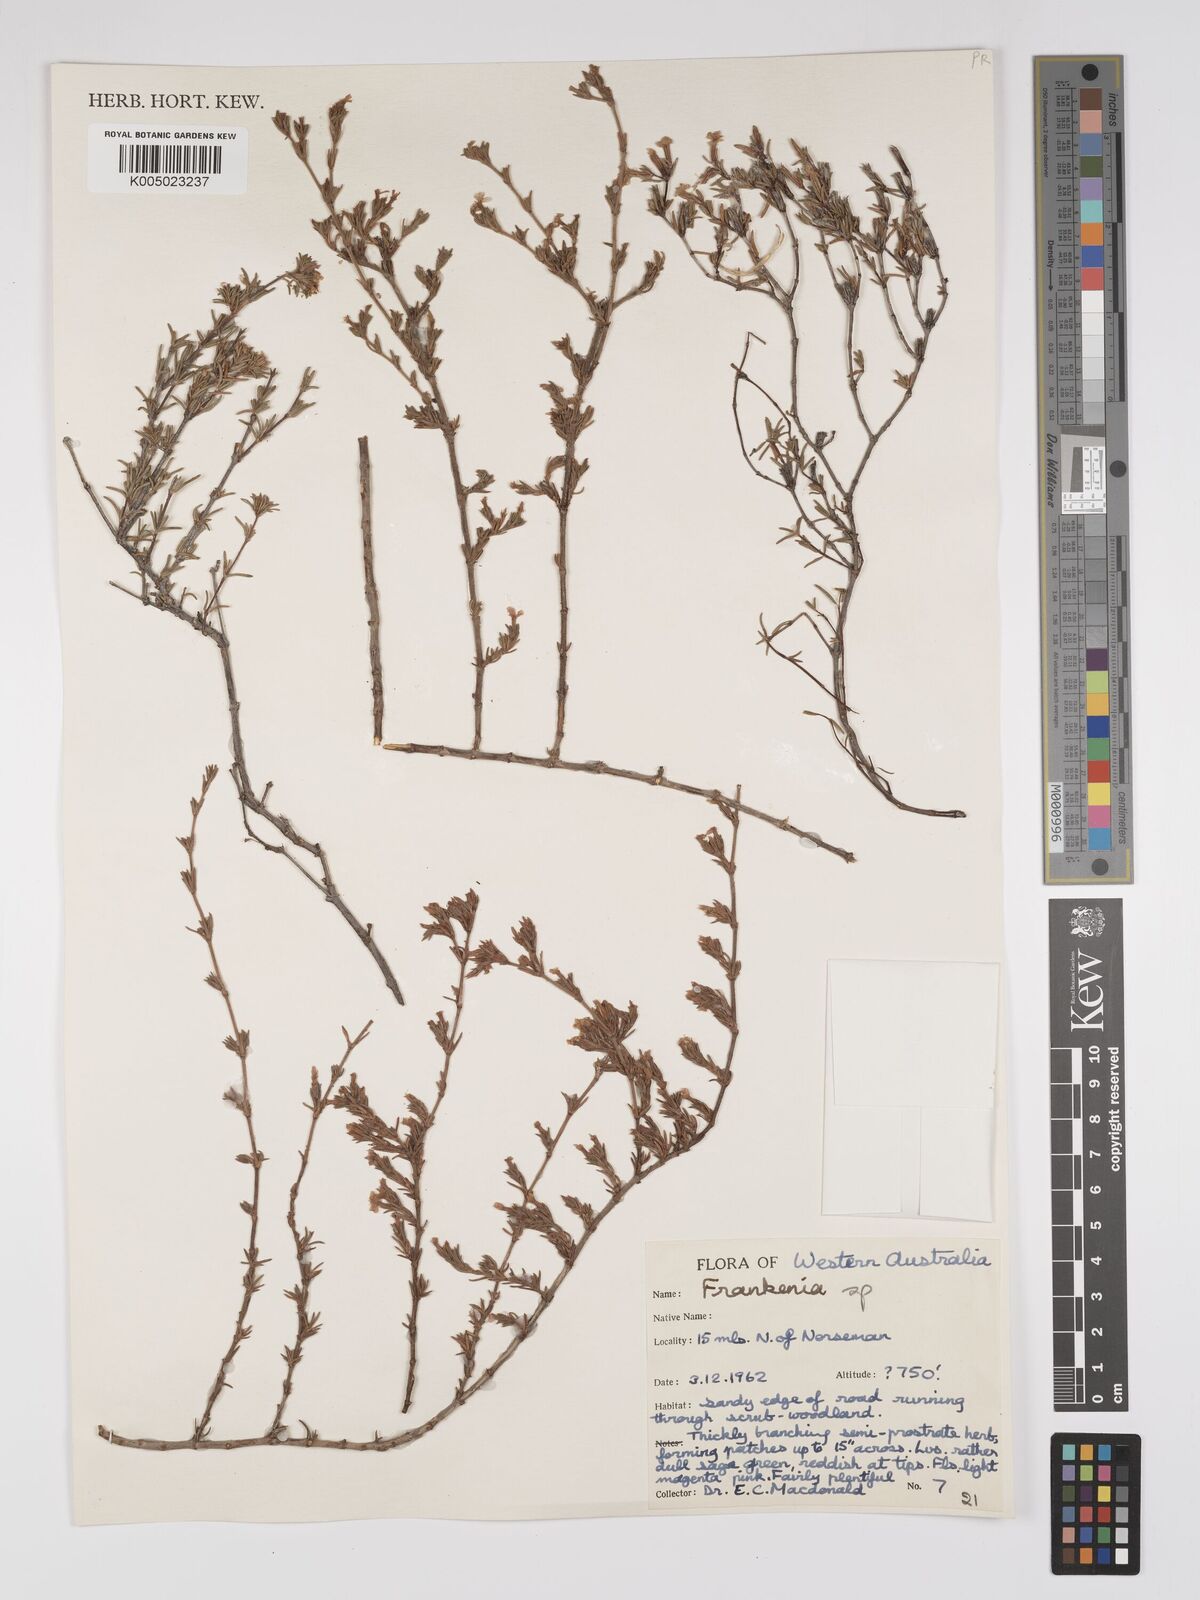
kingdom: Plantae
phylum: Tracheophyta
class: Magnoliopsida
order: Caryophyllales
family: Frankeniaceae
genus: Frankenia
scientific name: Frankenia
